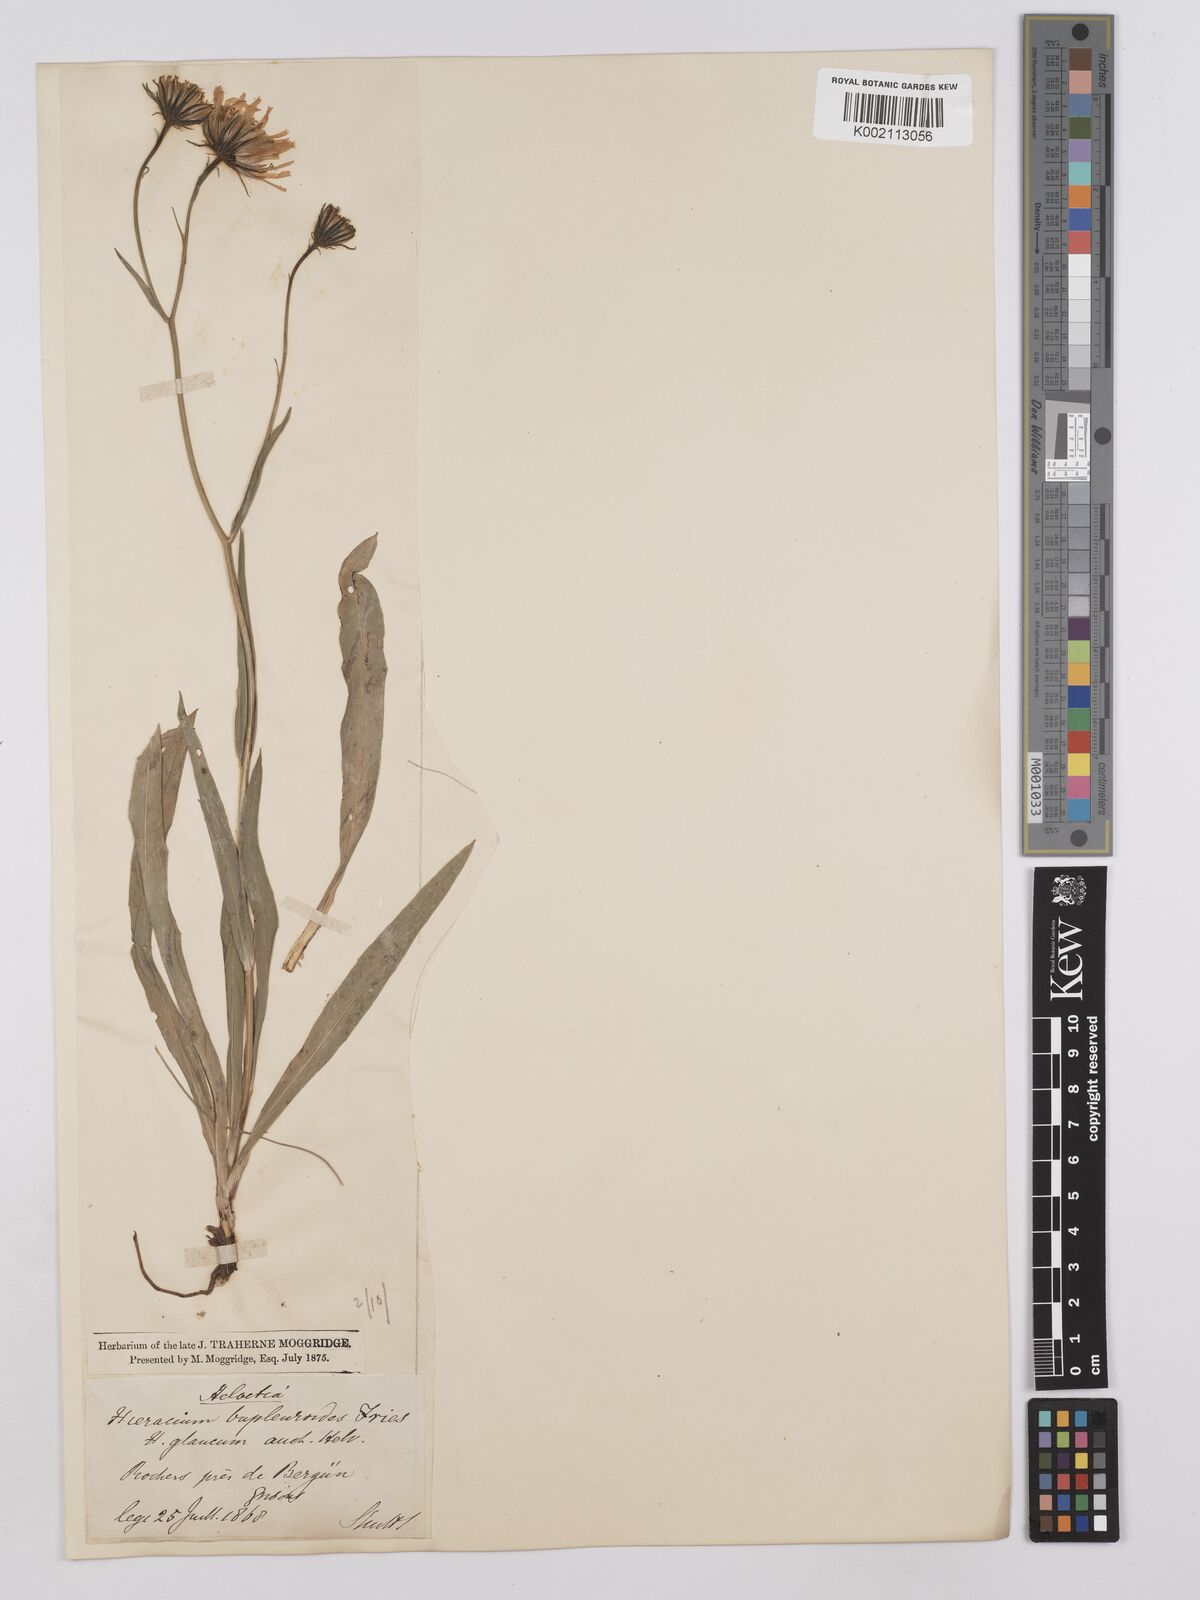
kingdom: Plantae
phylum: Tracheophyta
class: Magnoliopsida
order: Asterales
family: Asteraceae
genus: Hieracium
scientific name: Hieracium bupleuroides
